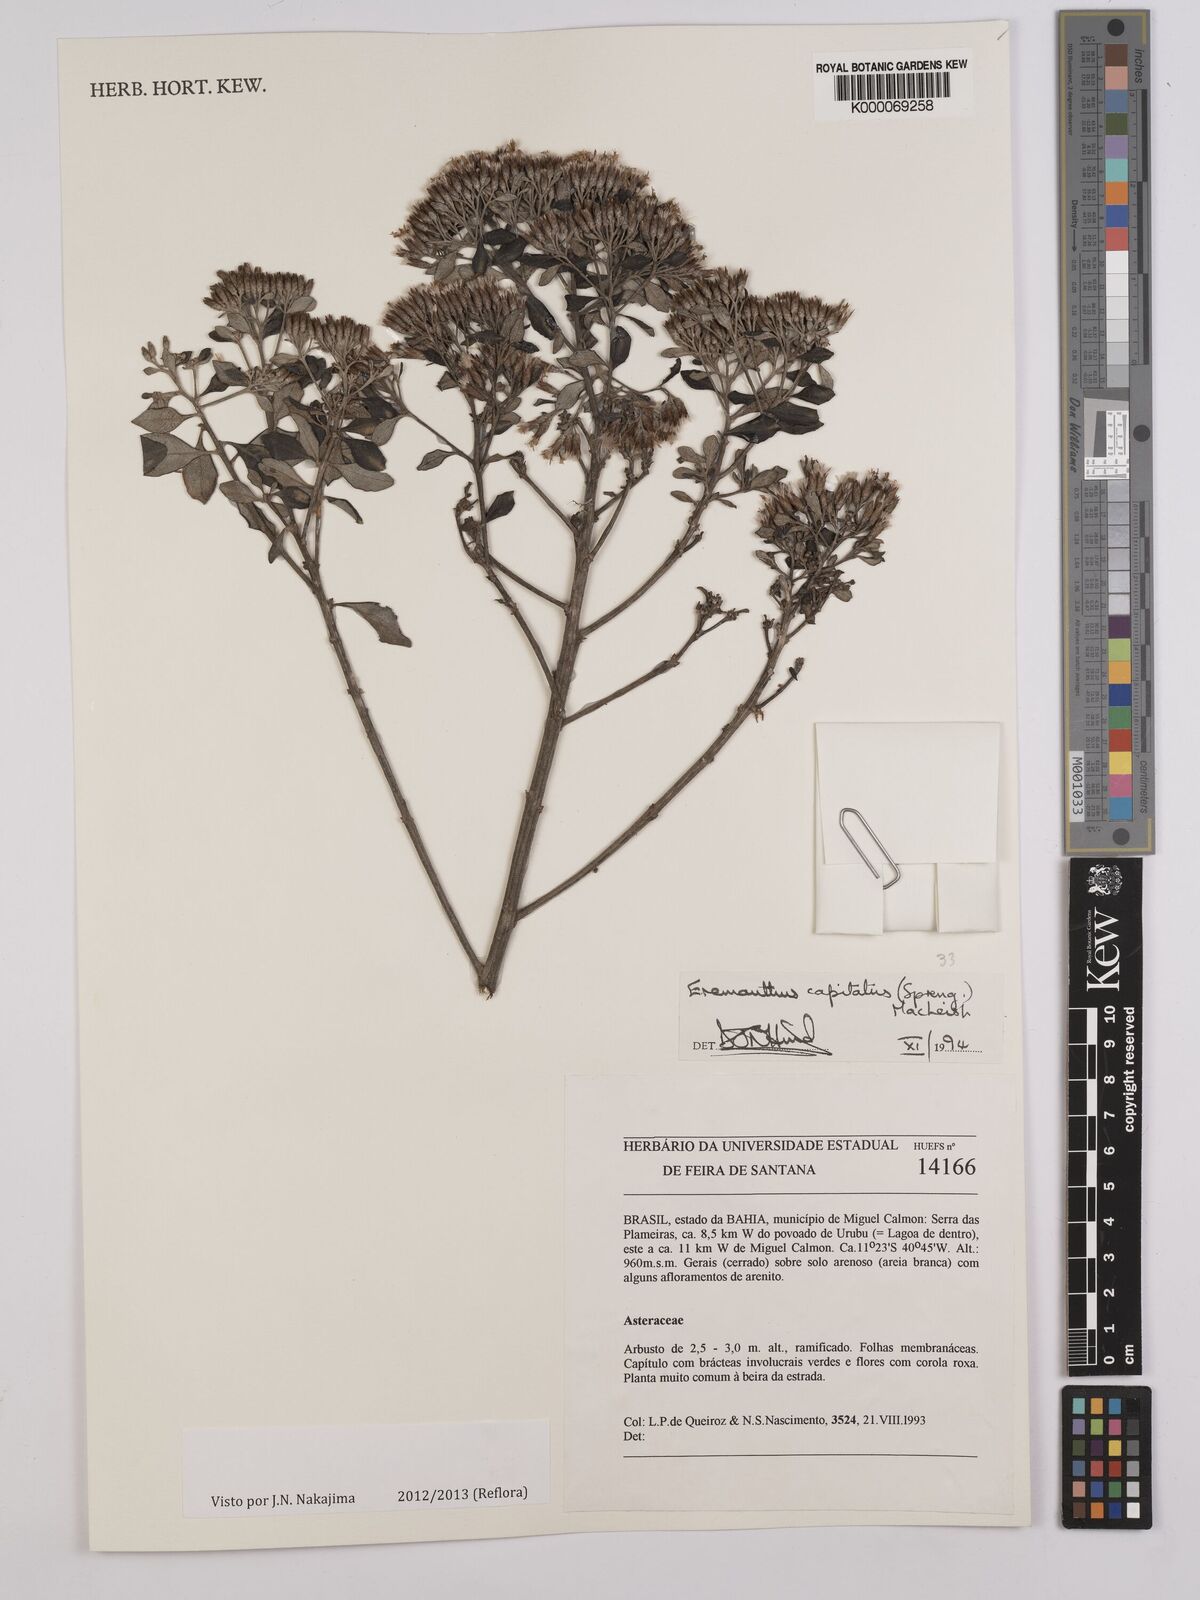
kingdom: Plantae
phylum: Tracheophyta
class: Magnoliopsida
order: Asterales
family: Asteraceae
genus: Eremanthus
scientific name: Eremanthus capitatus
